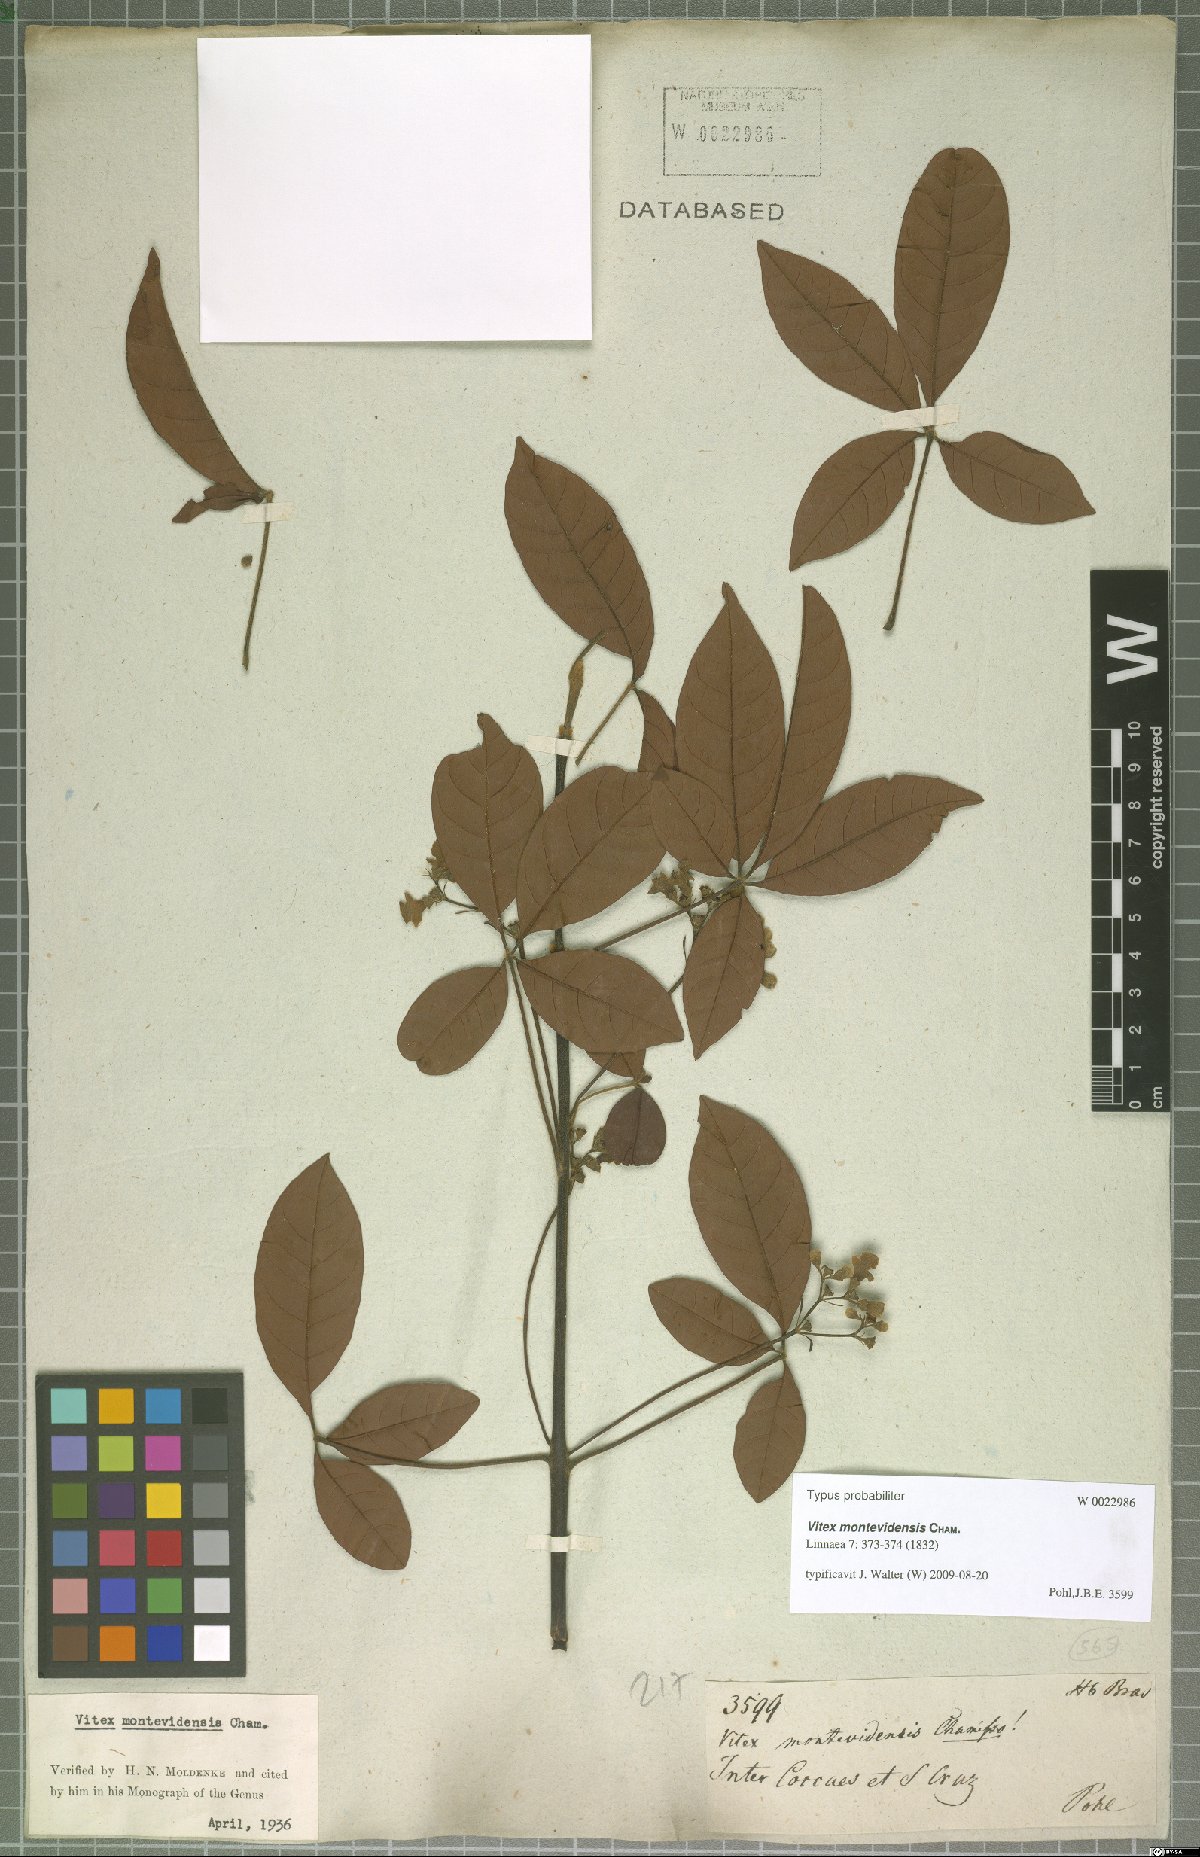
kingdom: Plantae
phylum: Tracheophyta
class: Magnoliopsida
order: Lamiales
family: Lamiaceae
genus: Vitex
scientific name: Vitex megapotamica
